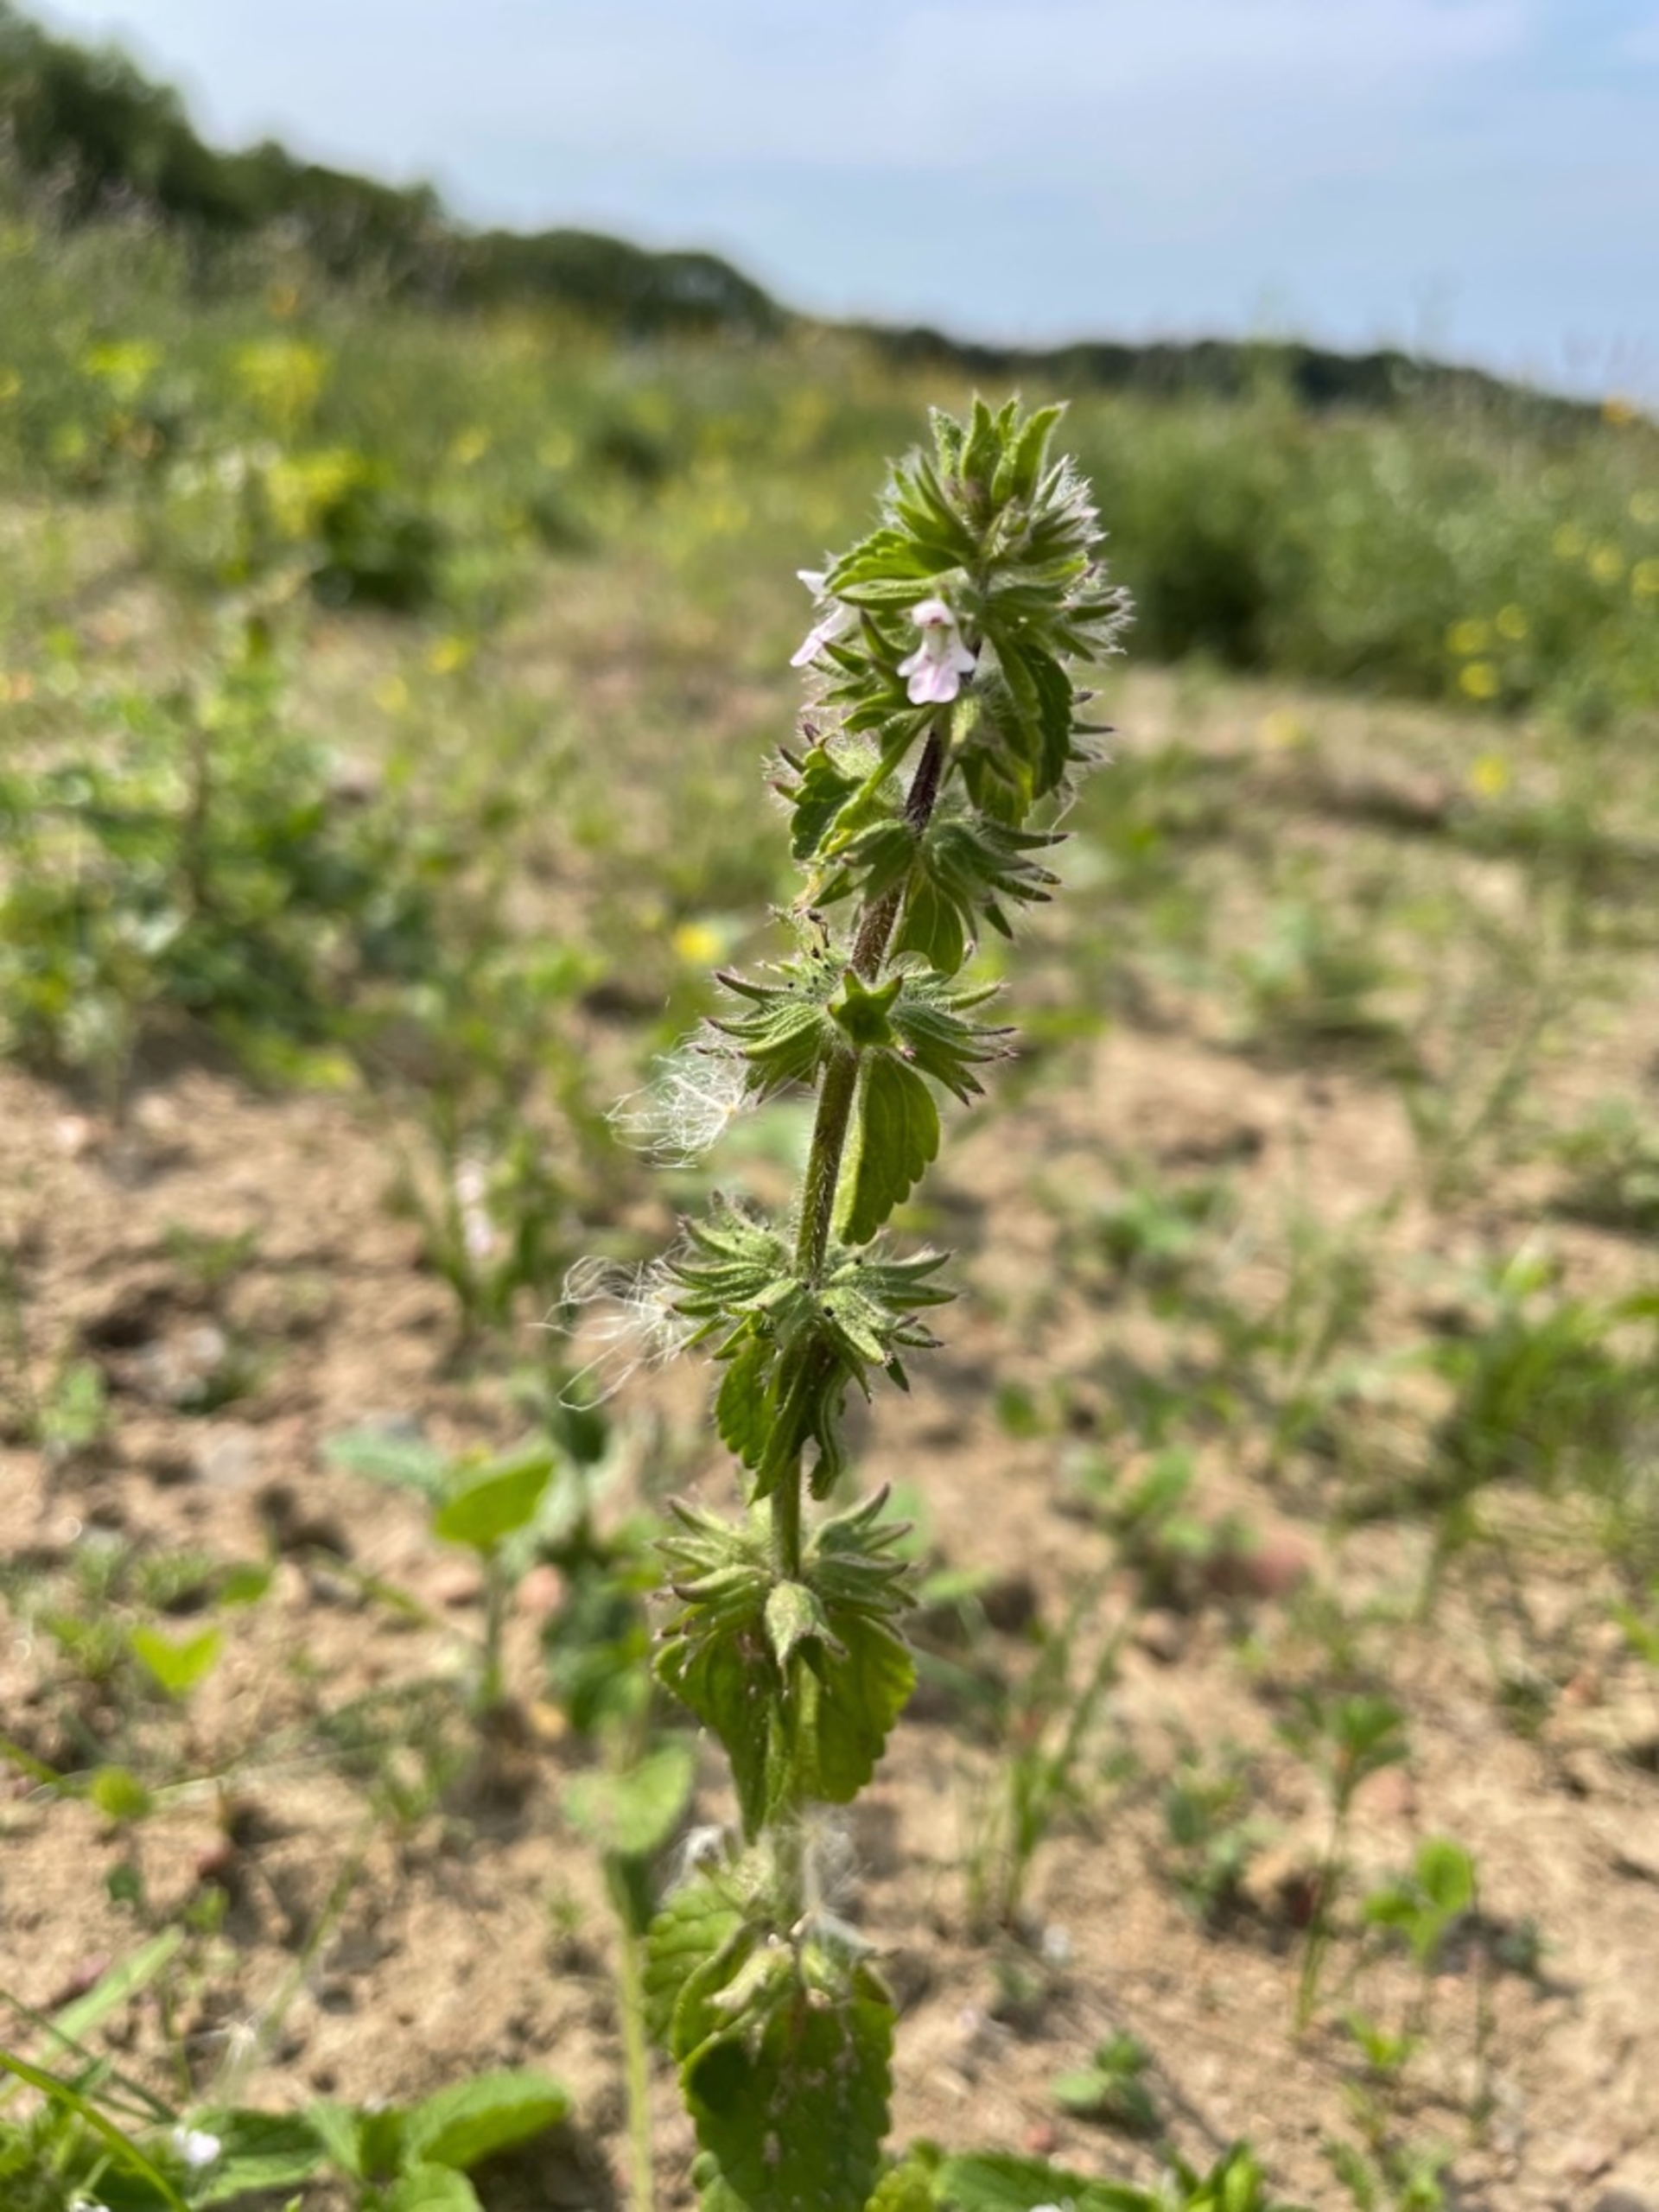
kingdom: Plantae
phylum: Tracheophyta
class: Magnoliopsida
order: Lamiales
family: Lamiaceae
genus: Stachys
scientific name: Stachys arvensis
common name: Ager-galtetand
